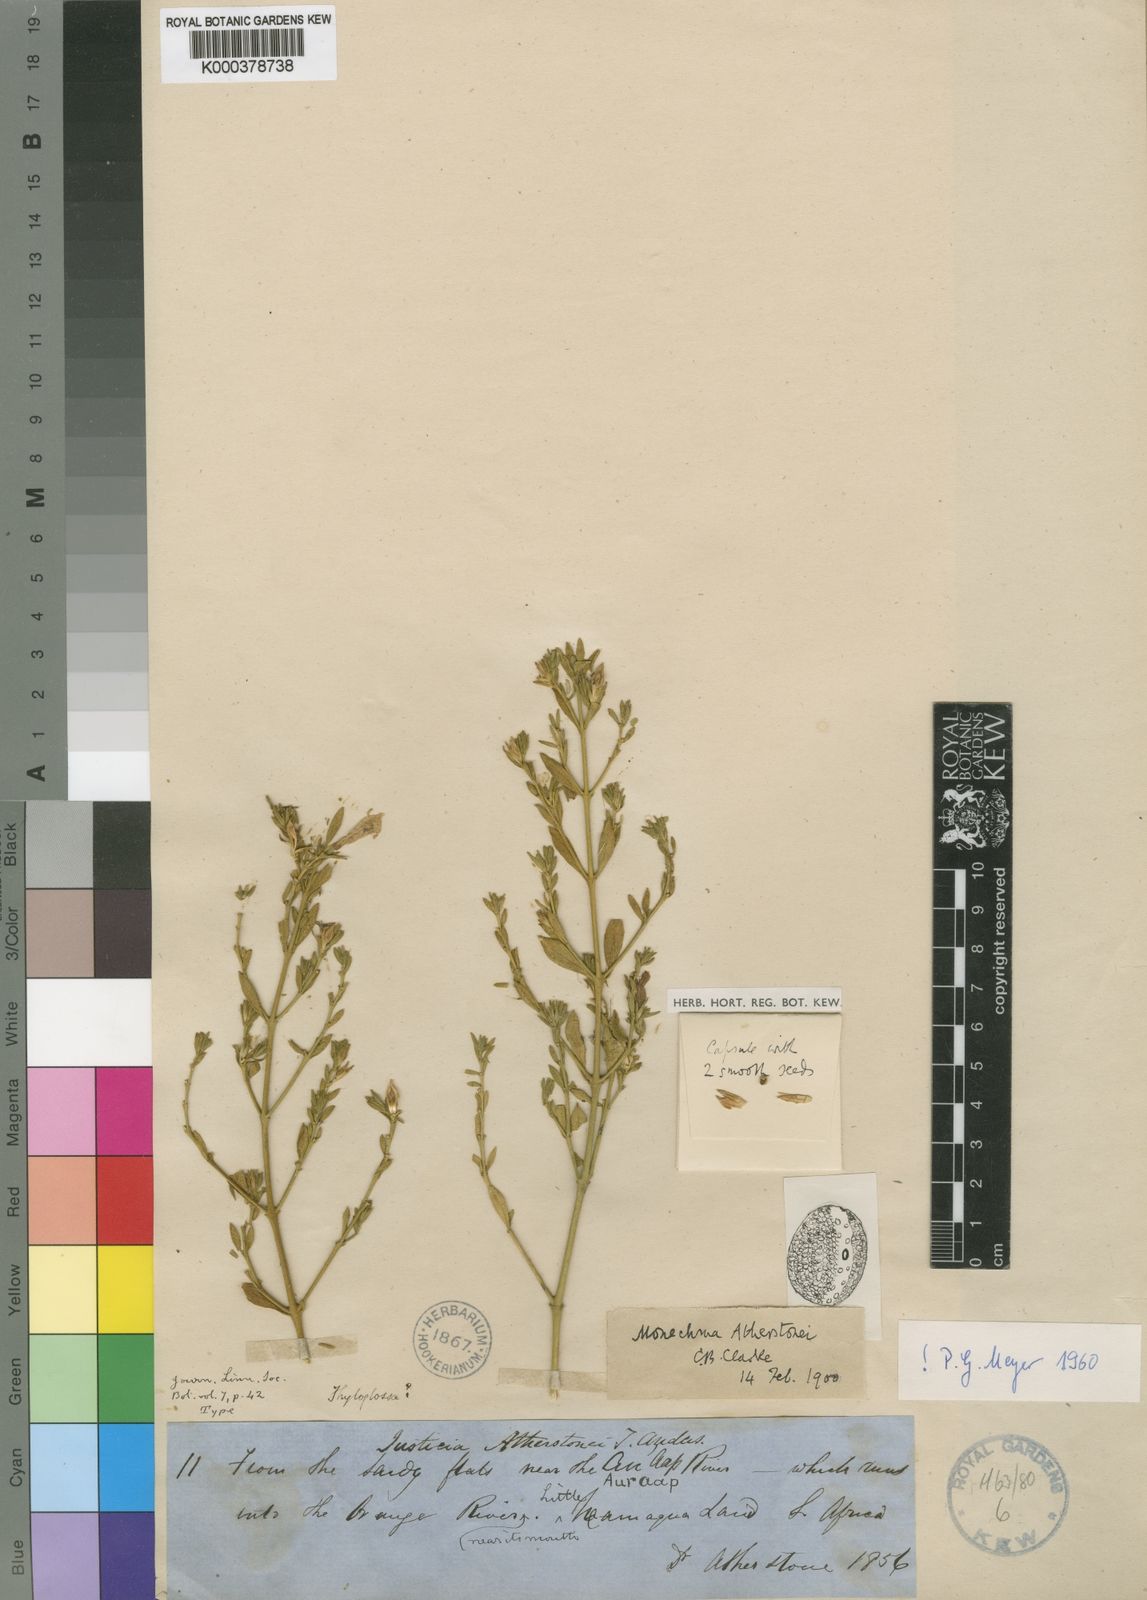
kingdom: Plantae
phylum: Tracheophyta
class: Magnoliopsida
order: Lamiales
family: Acanthaceae
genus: Monechma
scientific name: Monechma spartioides
